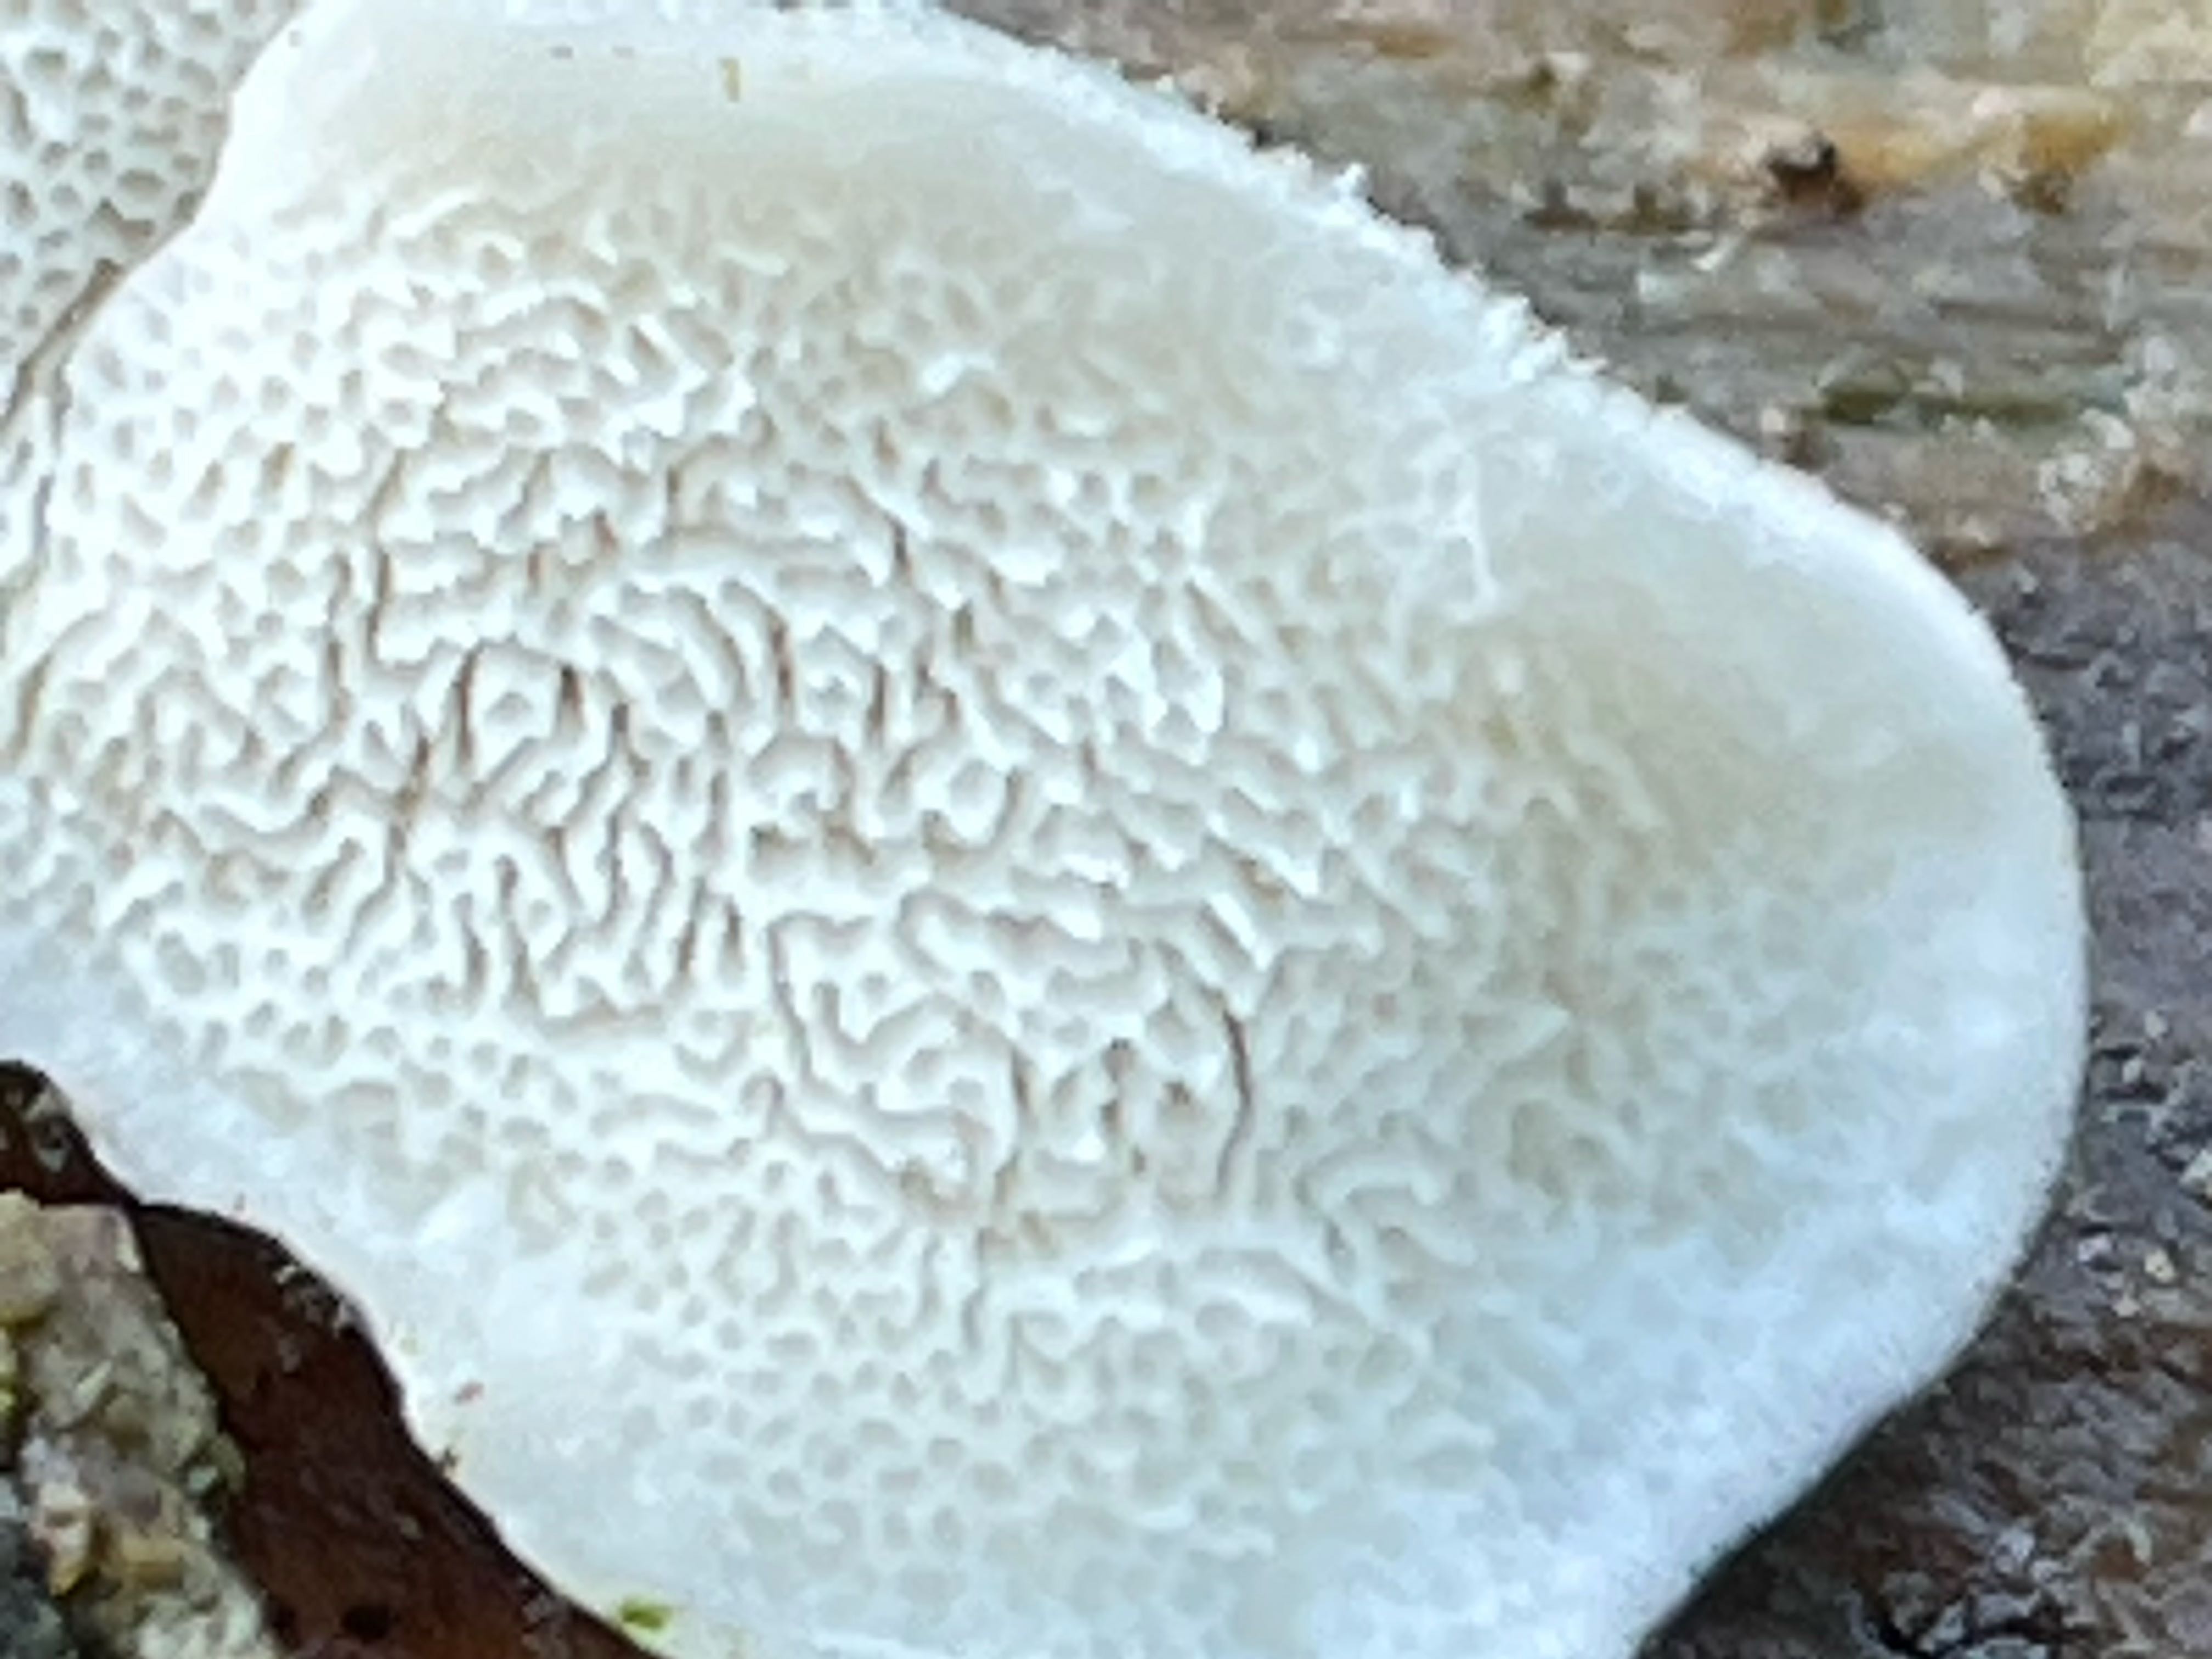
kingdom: Fungi
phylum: Basidiomycota
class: Agaricomycetes
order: Polyporales
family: Polyporaceae
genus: Cyanosporus
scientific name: Cyanosporus caesius
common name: blålig kødporesvamp
